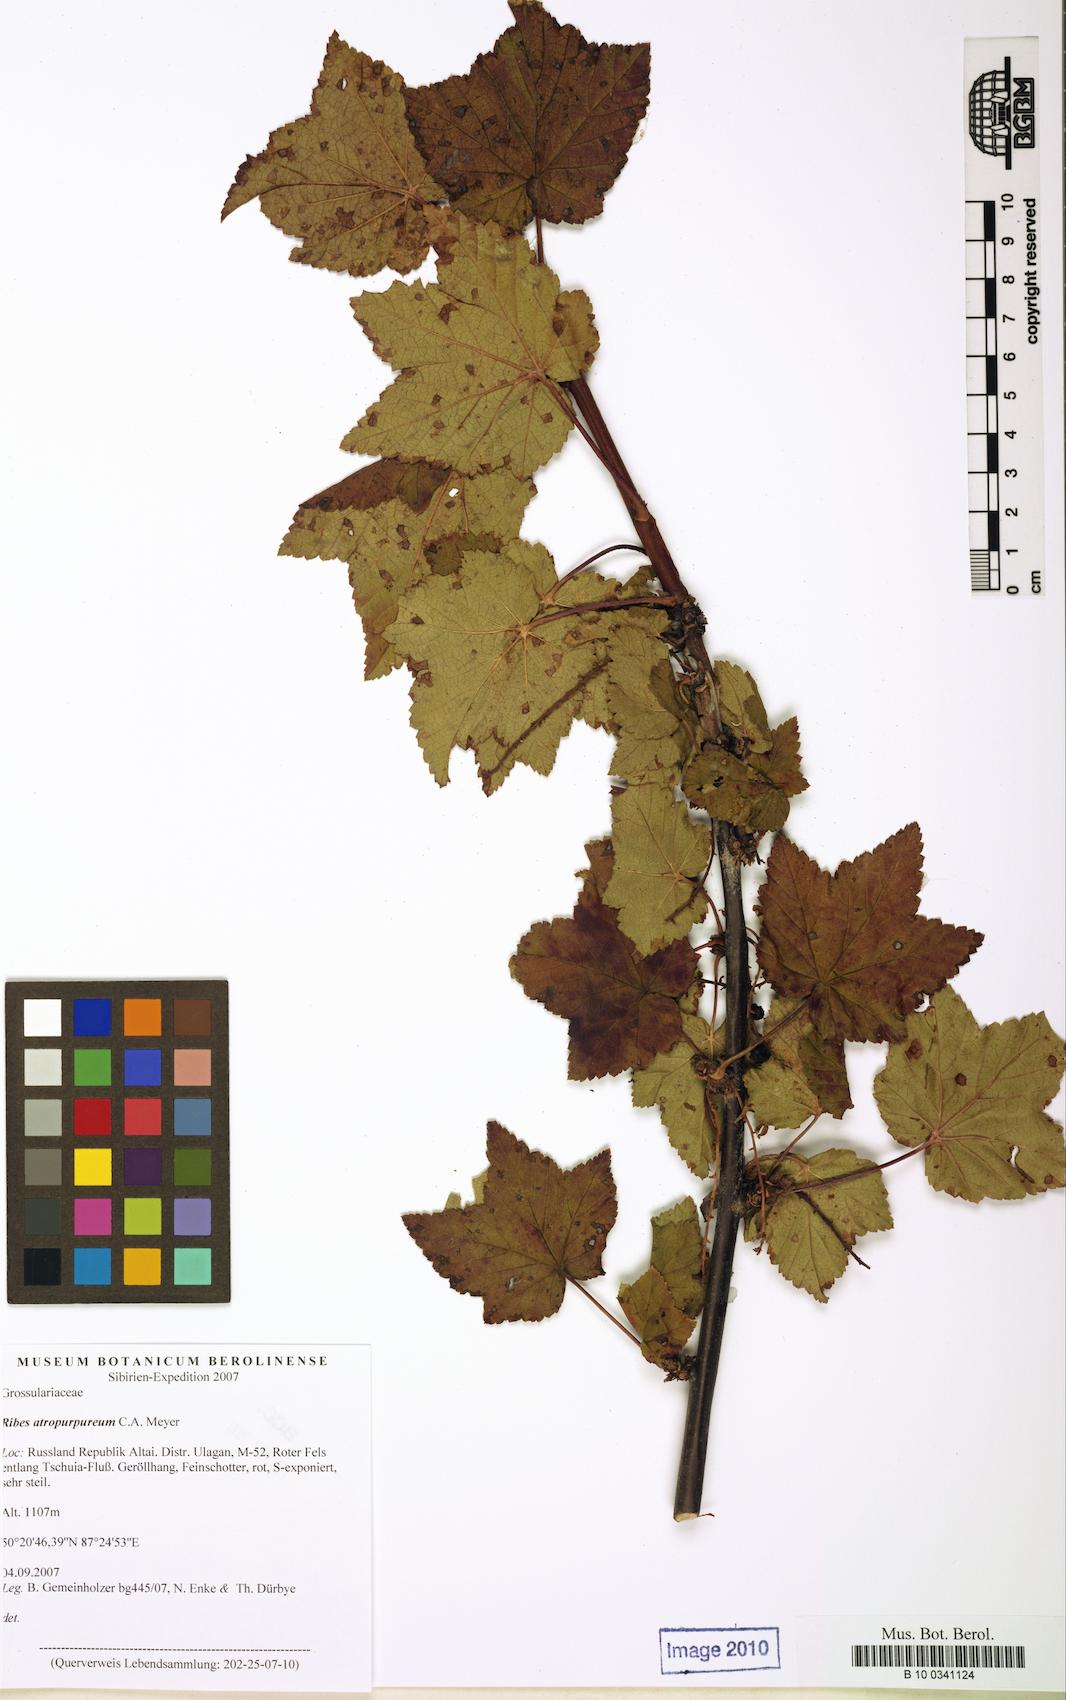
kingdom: Plantae
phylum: Tracheophyta
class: Magnoliopsida
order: Saxifragales
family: Grossulariaceae
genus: Ribes
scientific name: Ribes petraeum
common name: Rock currant
